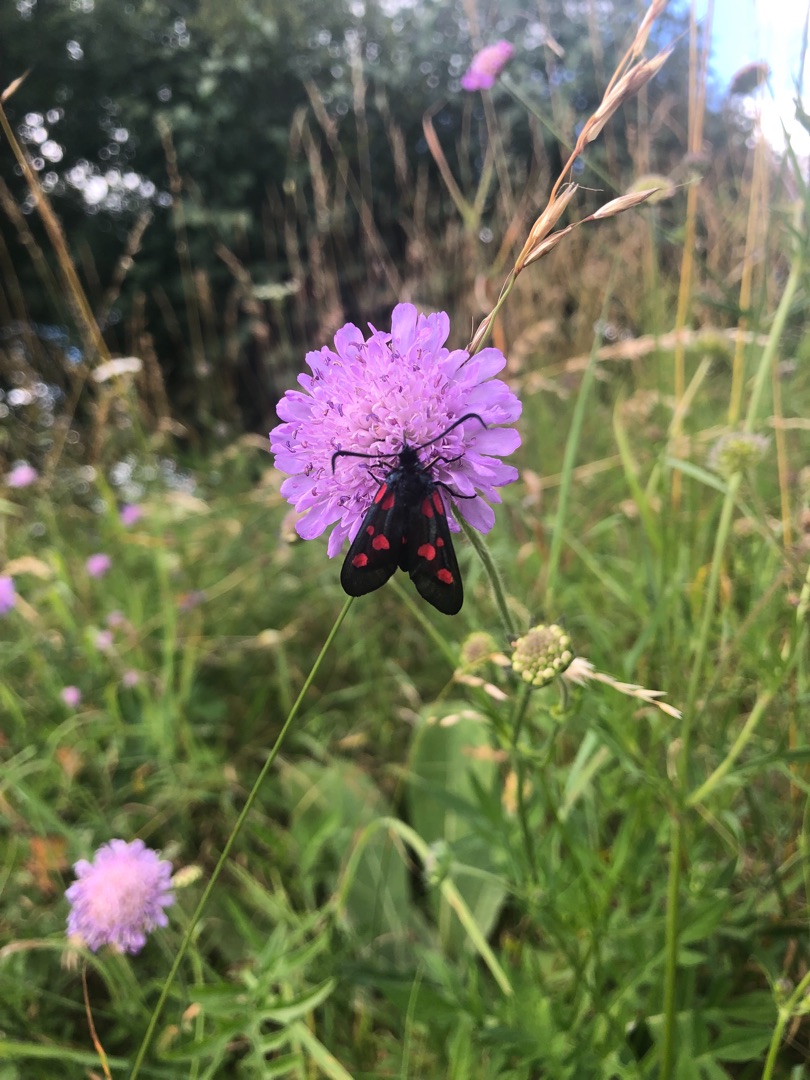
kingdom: Animalia
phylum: Arthropoda
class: Insecta
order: Lepidoptera
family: Zygaenidae
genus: Zygaena
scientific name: Zygaena lonicerae
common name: Femplettet køllesværmer
